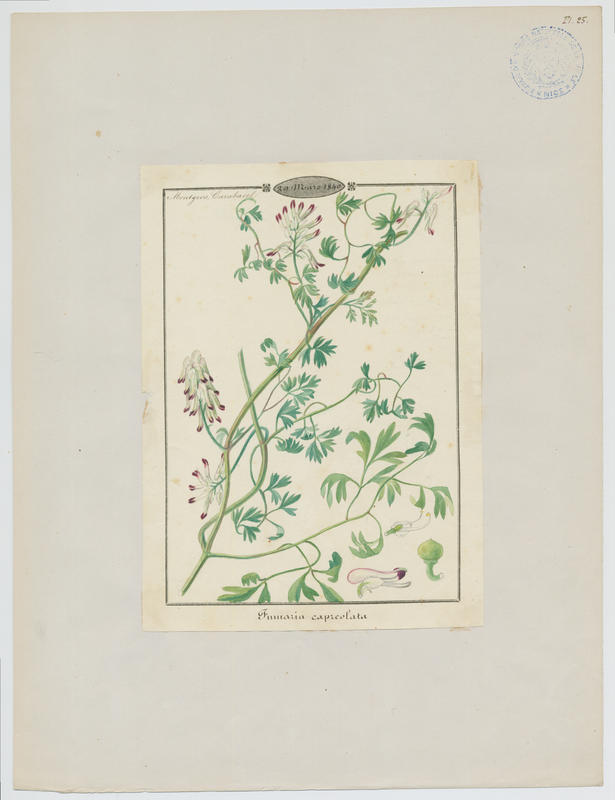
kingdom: Plantae
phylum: Tracheophyta
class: Magnoliopsida
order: Ranunculales
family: Papaveraceae
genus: Fumaria
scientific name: Fumaria capreolata
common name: White ramping-fumitory
